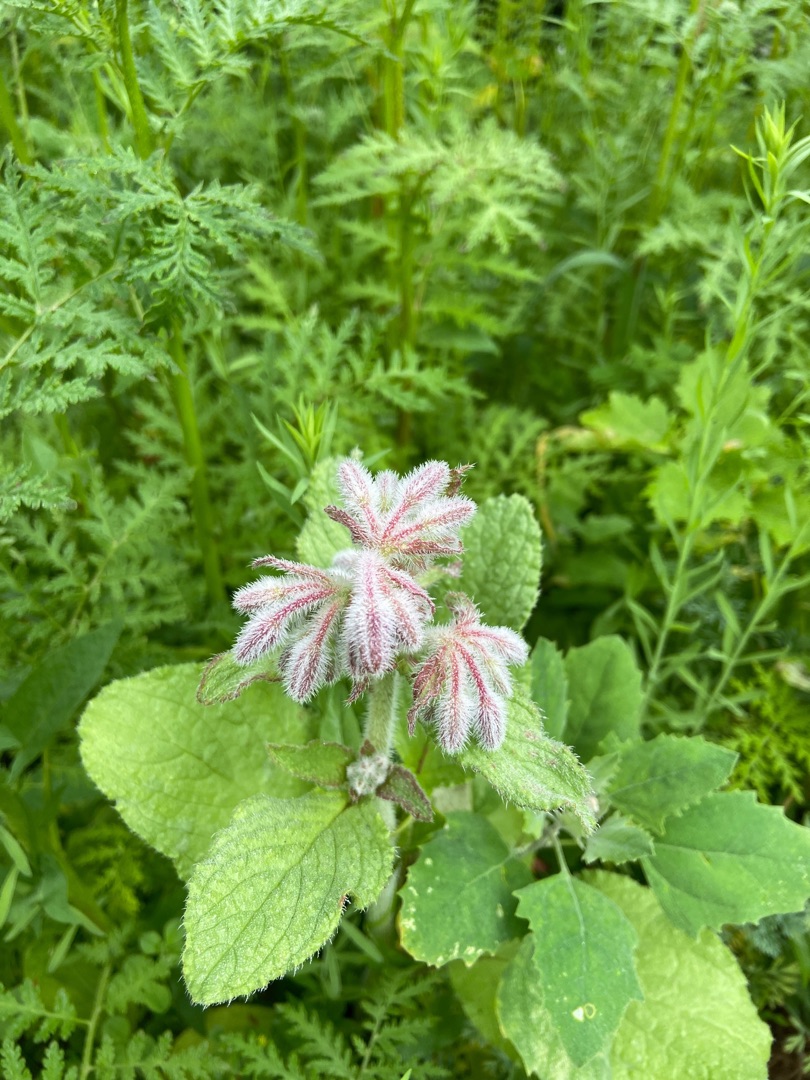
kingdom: Plantae
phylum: Tracheophyta
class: Magnoliopsida
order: Boraginales
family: Boraginaceae
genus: Borago
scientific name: Borago officinalis
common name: Hjulkrone
